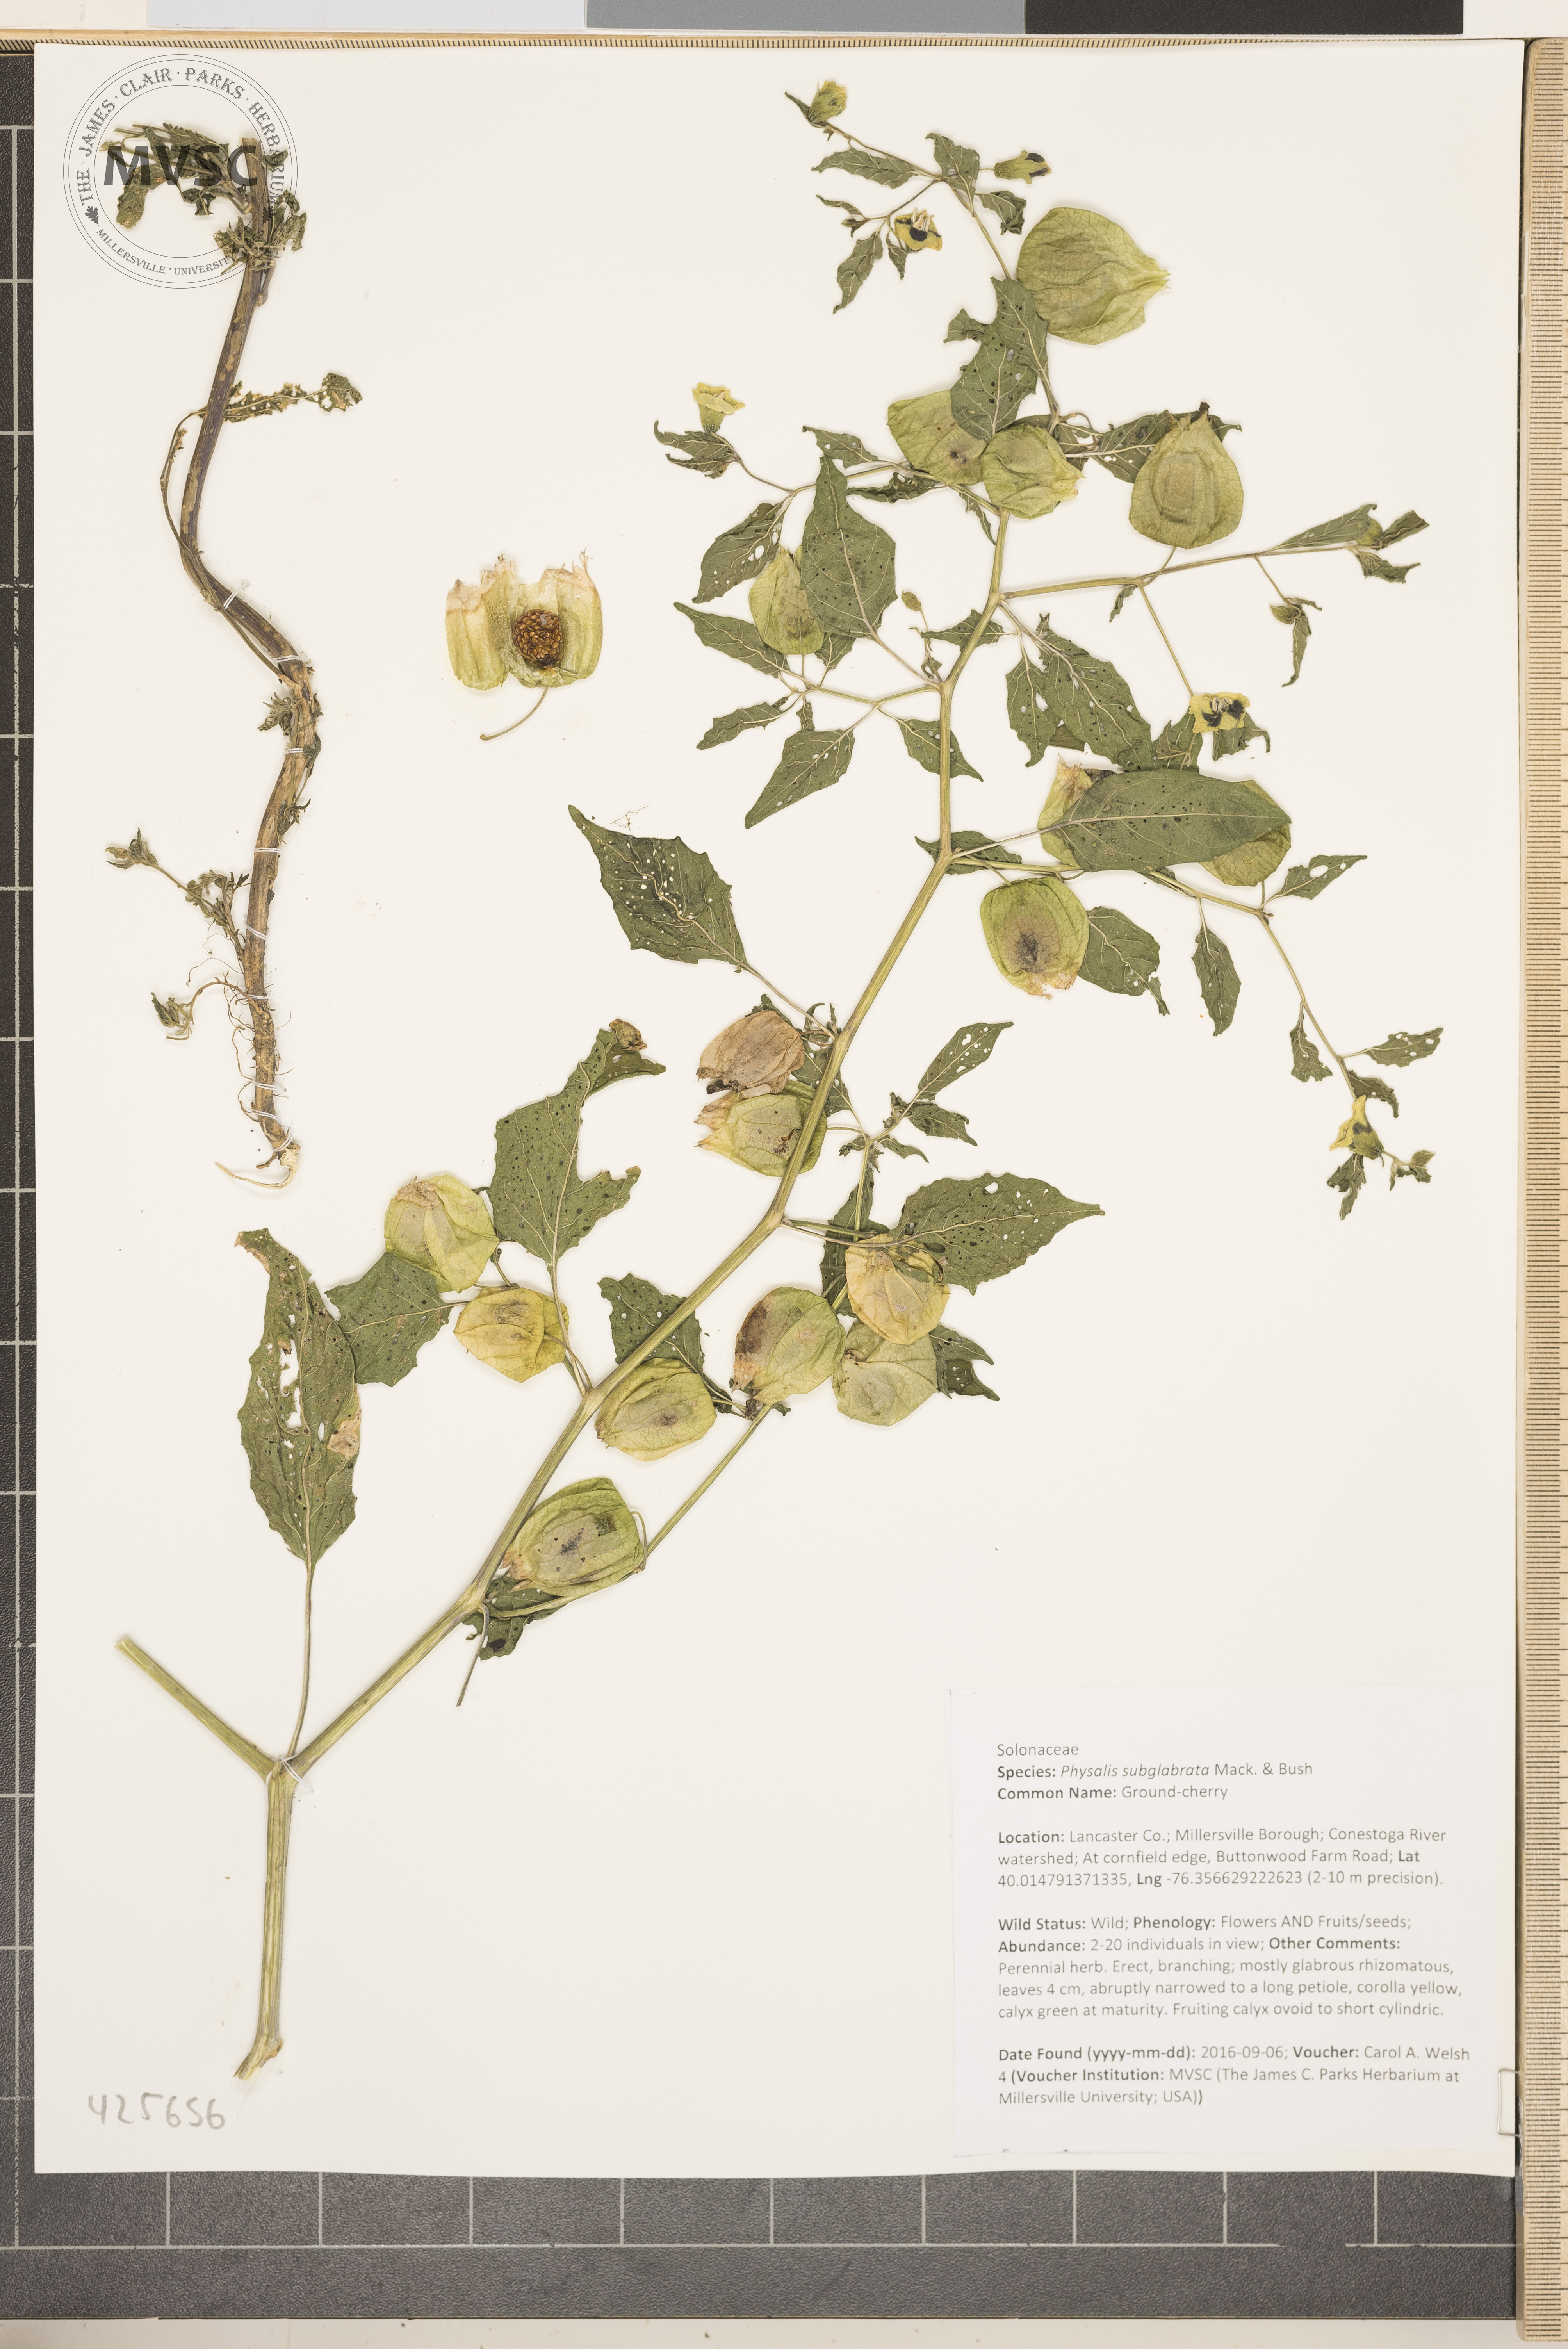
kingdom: Plantae
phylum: Tracheophyta
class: Magnoliopsida
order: Solanales
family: Solanaceae
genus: Physalis
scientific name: Physalis longifolia
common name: Ground-cherry
